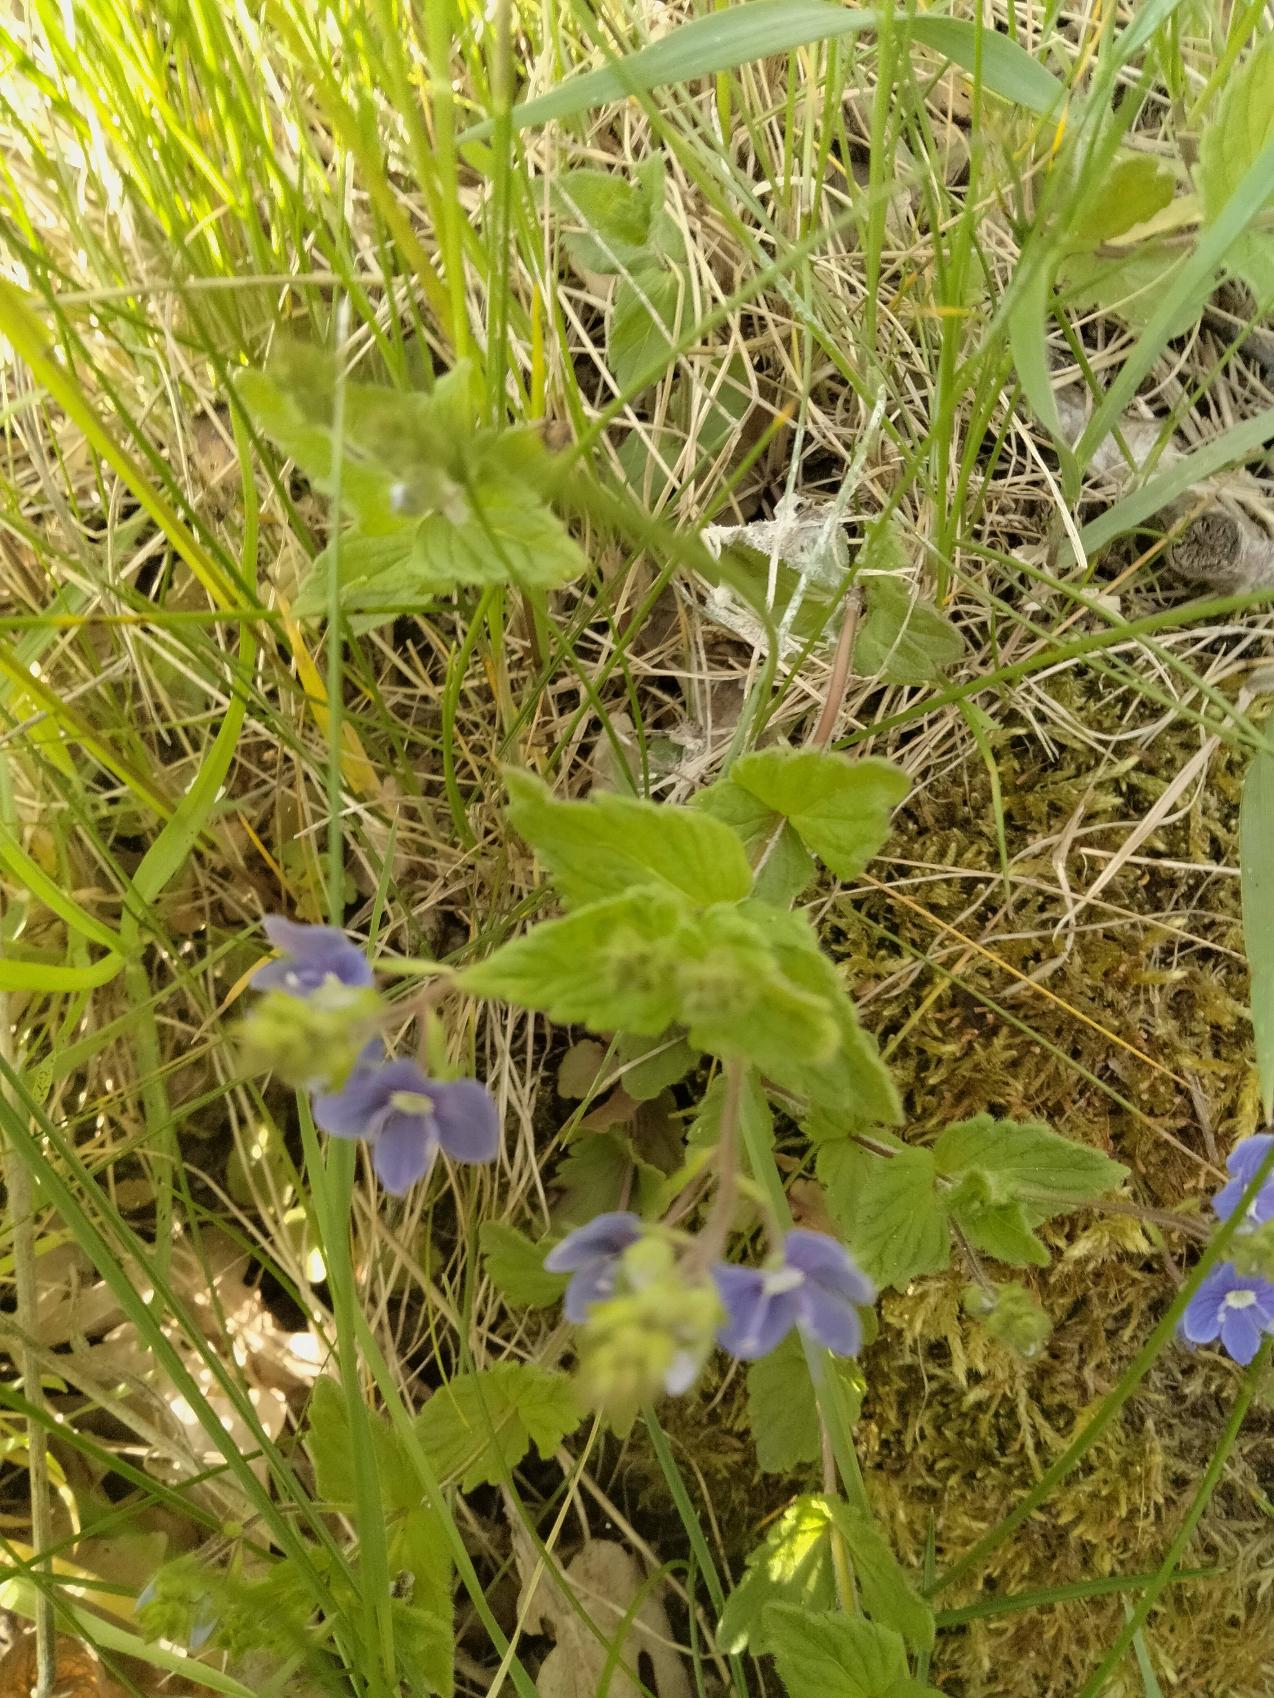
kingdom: Plantae
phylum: Tracheophyta
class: Magnoliopsida
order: Lamiales
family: Plantaginaceae
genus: Veronica
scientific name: Veronica chamaedrys
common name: Tveskægget ærenpris
